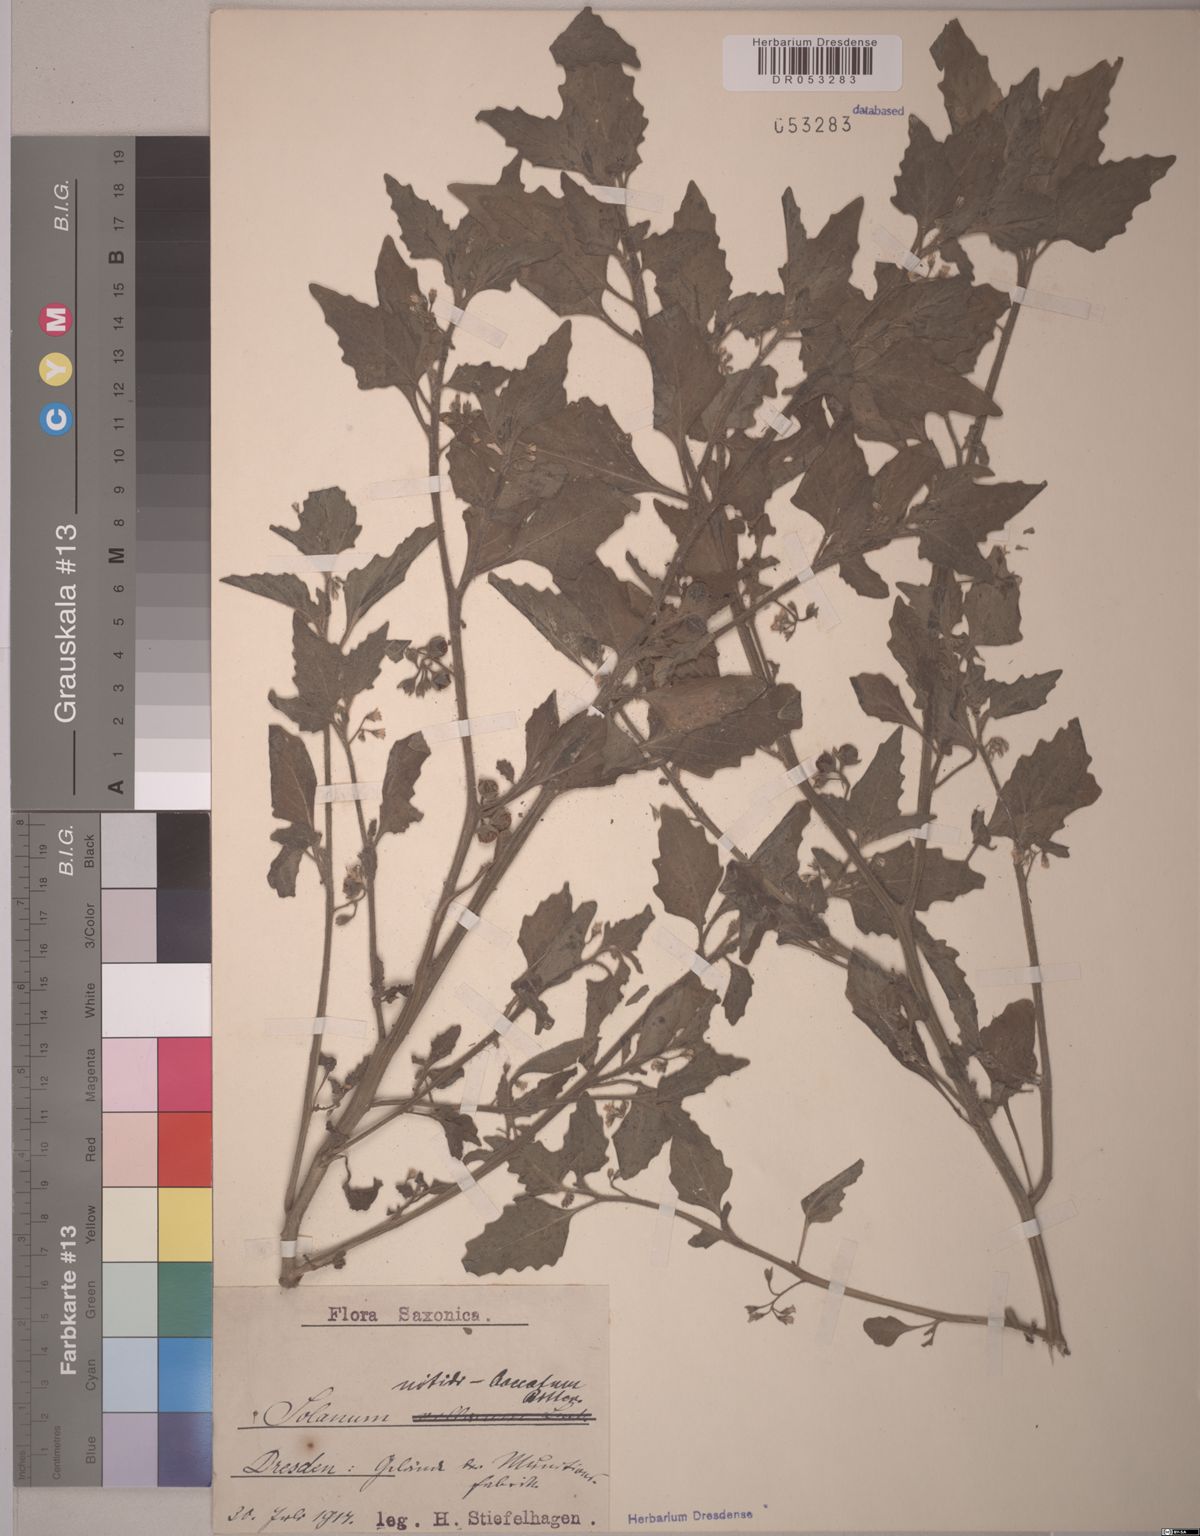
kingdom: Plantae
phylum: Tracheophyta
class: Magnoliopsida
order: Solanales
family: Solanaceae
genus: Solanum
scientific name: Solanum nitidibaccatum
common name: Hairy nightshade
